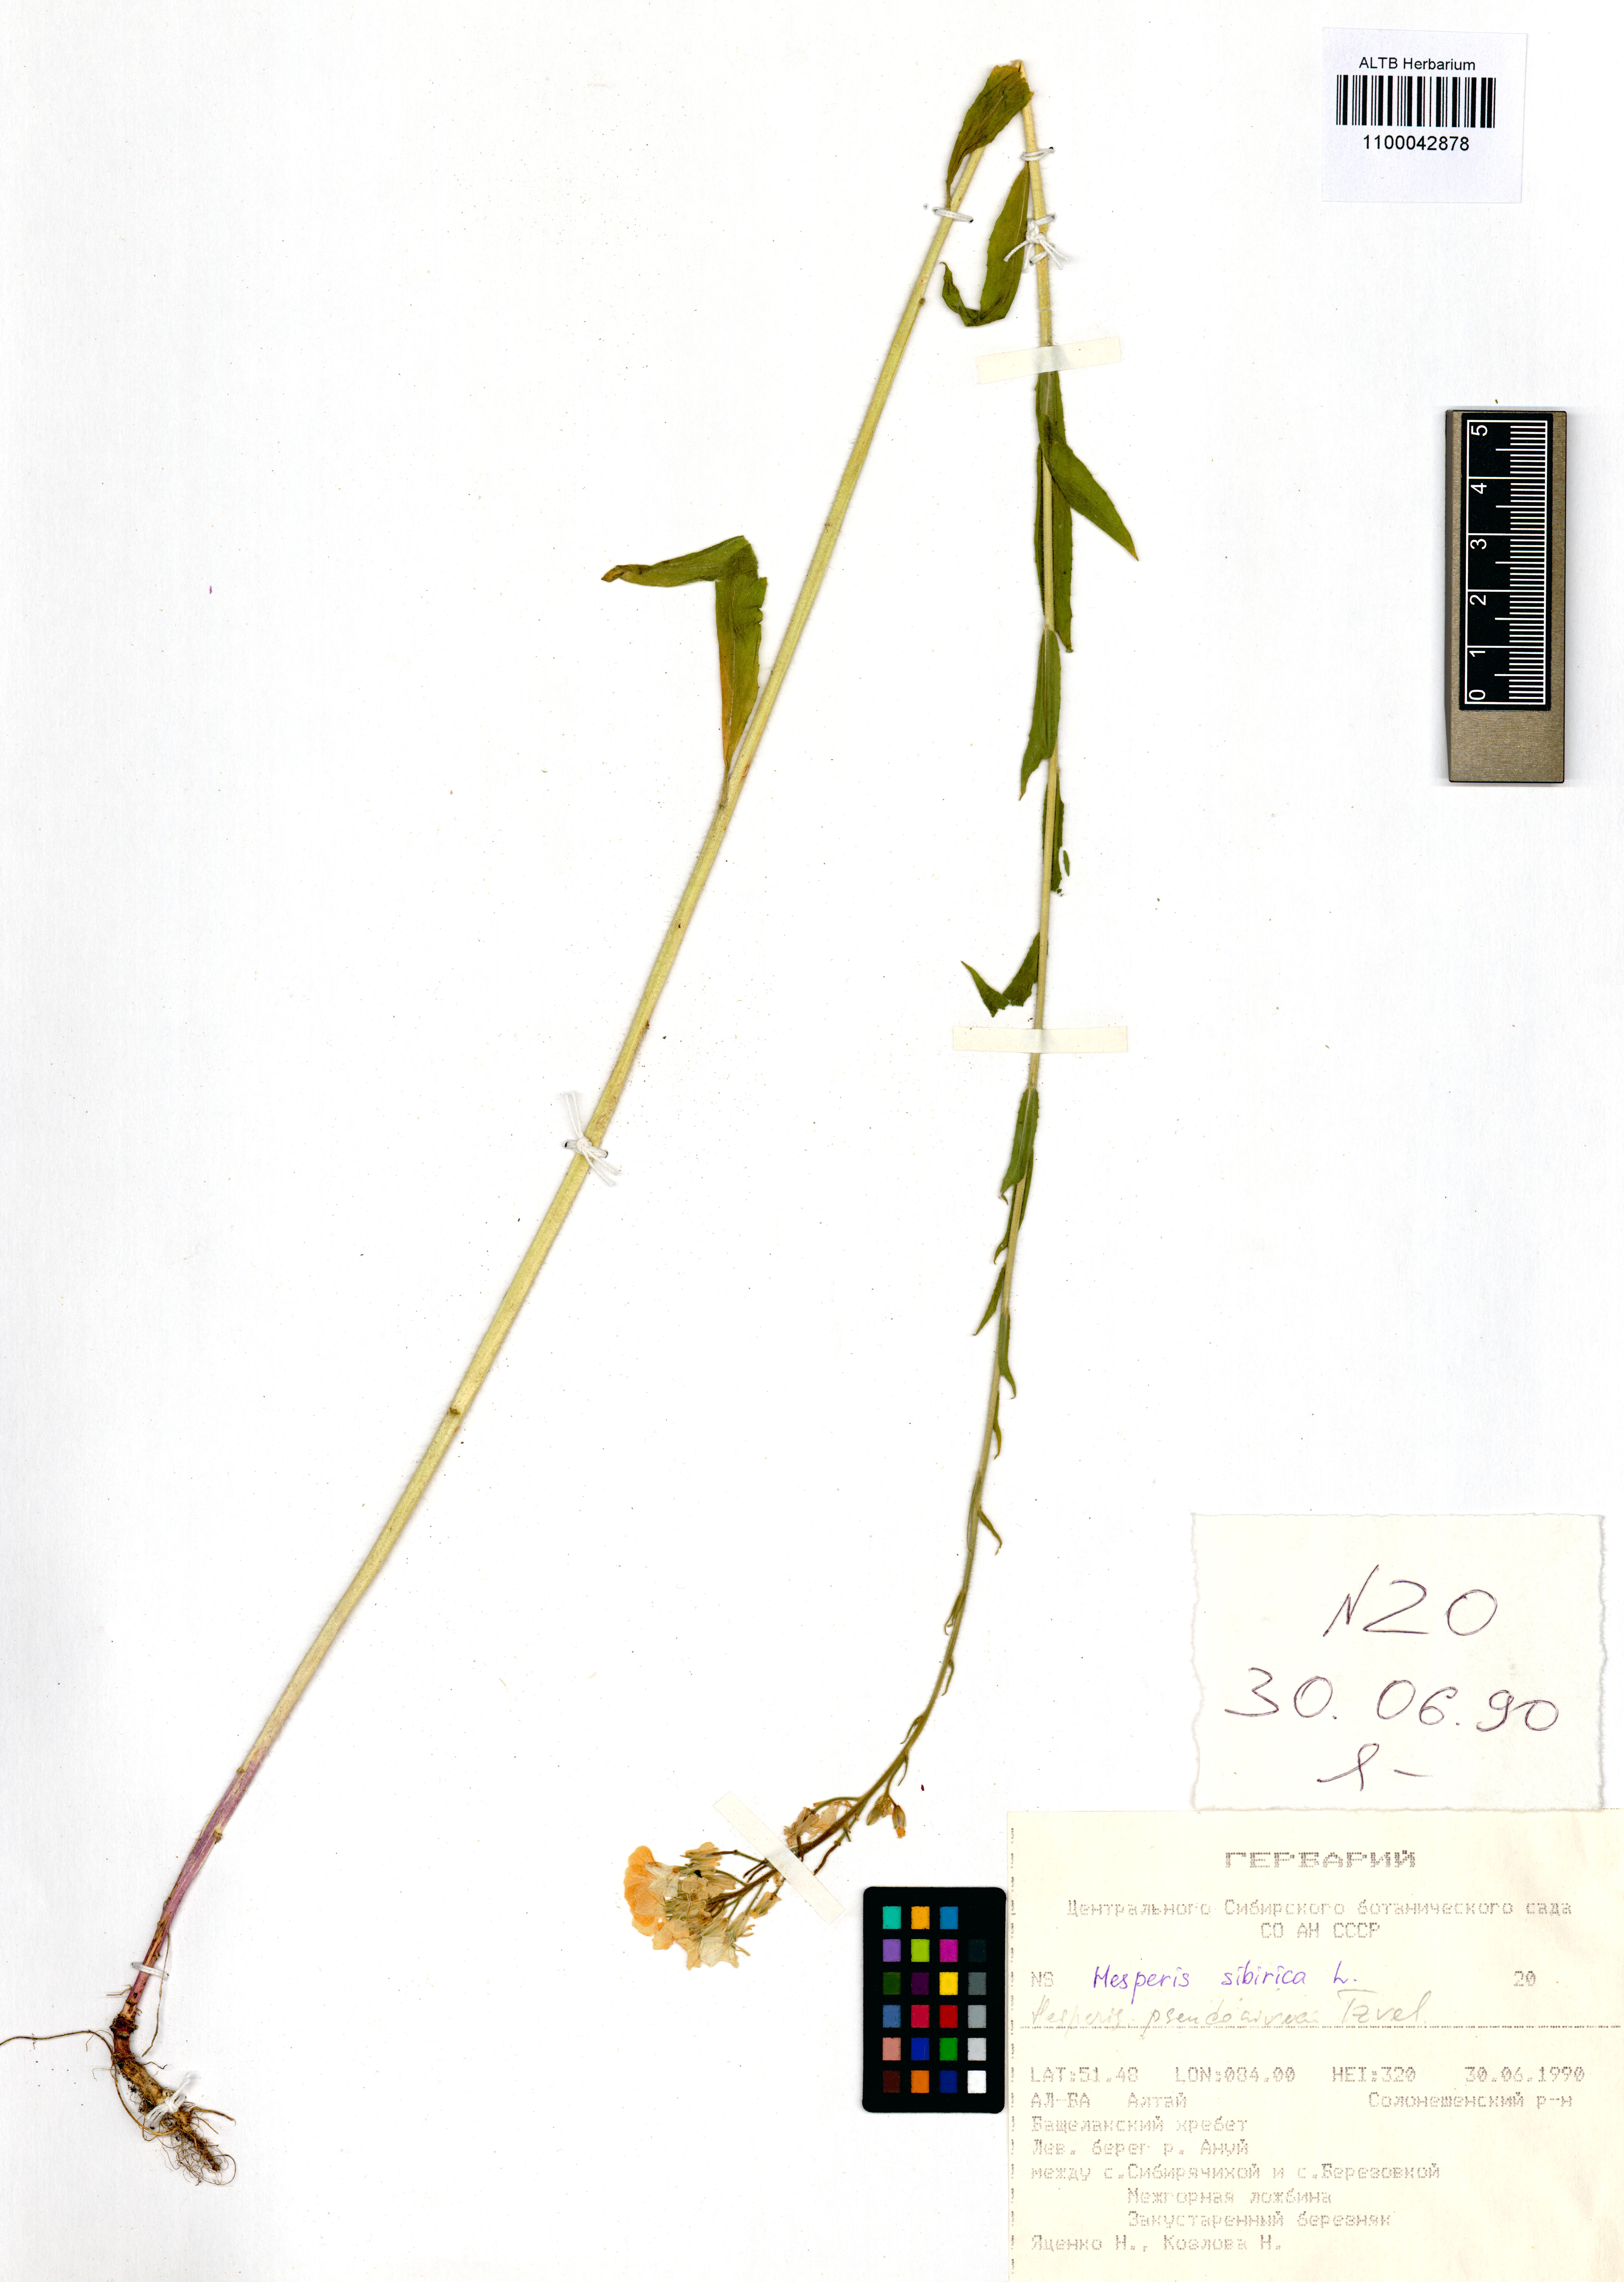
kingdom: Plantae
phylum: Tracheophyta
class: Magnoliopsida
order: Brassicales
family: Brassicaceae
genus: Hesperis
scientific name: Hesperis sibirica
